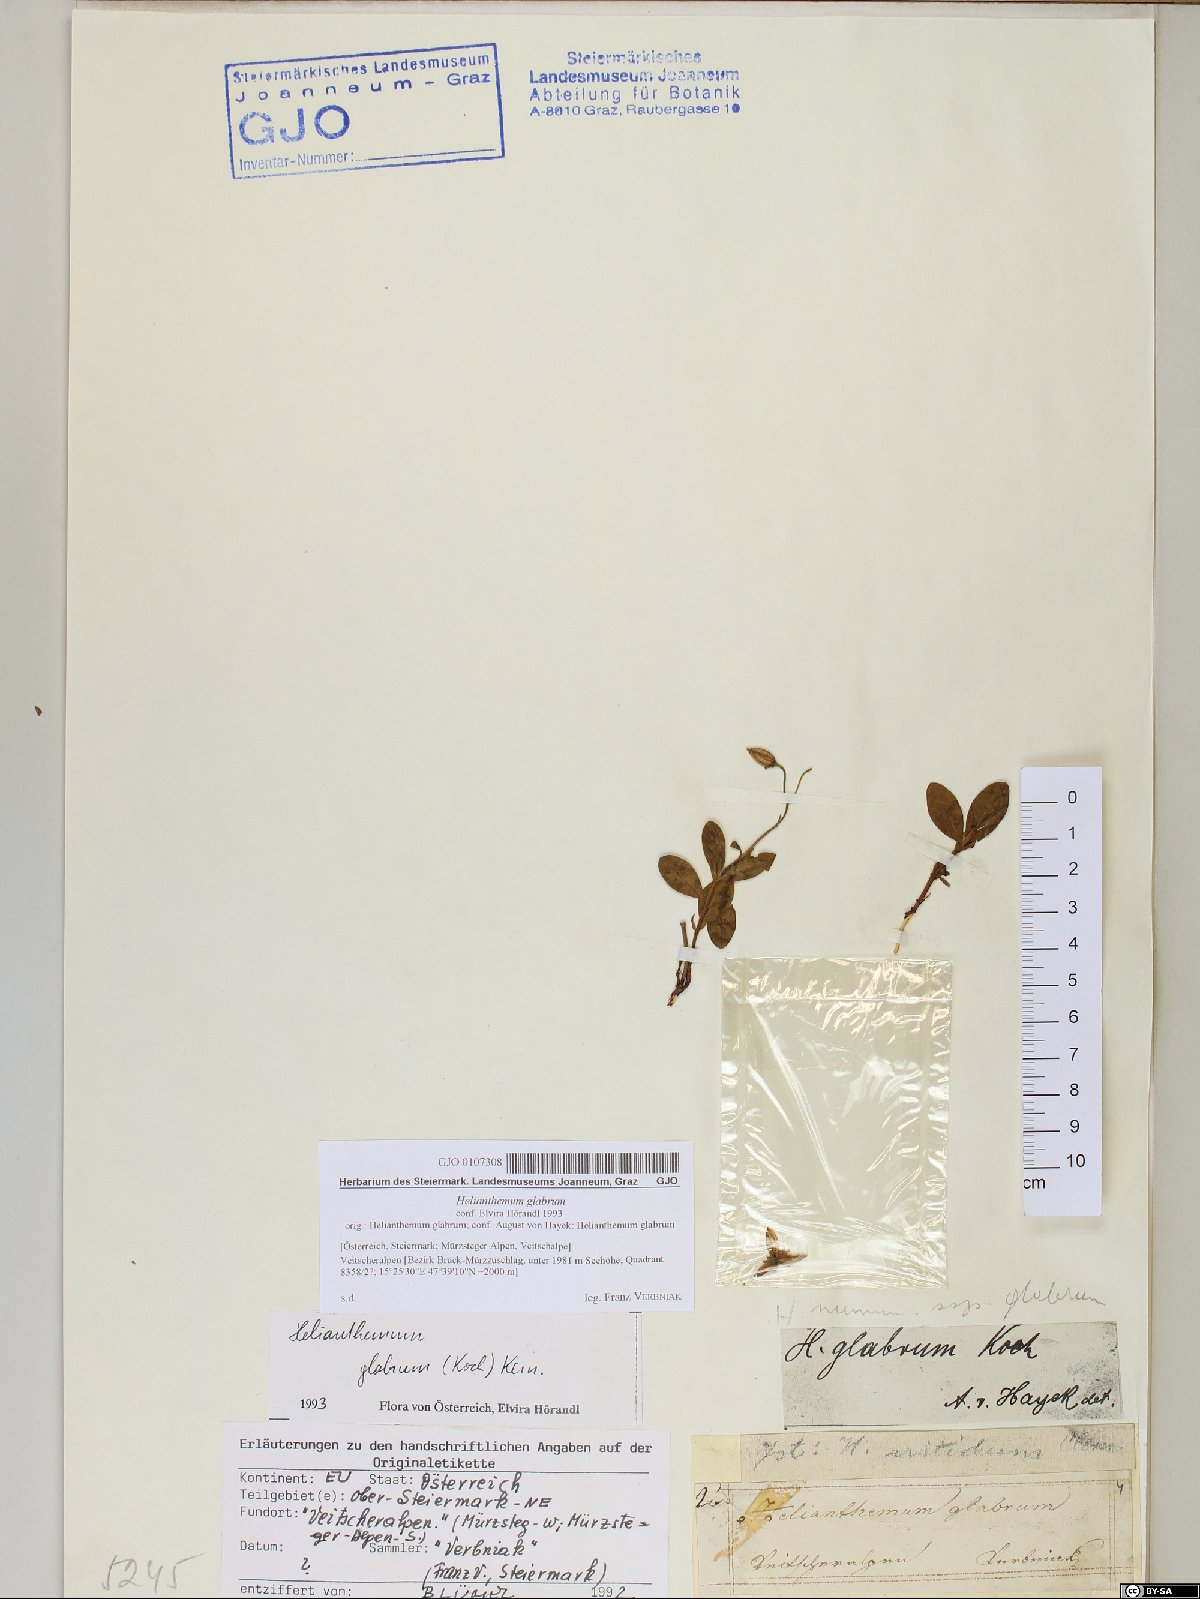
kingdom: Plantae
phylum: Tracheophyta
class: Magnoliopsida
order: Malvales
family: Cistaceae
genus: Helianthemum
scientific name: Helianthemum nummularium
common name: Common rock-rose
